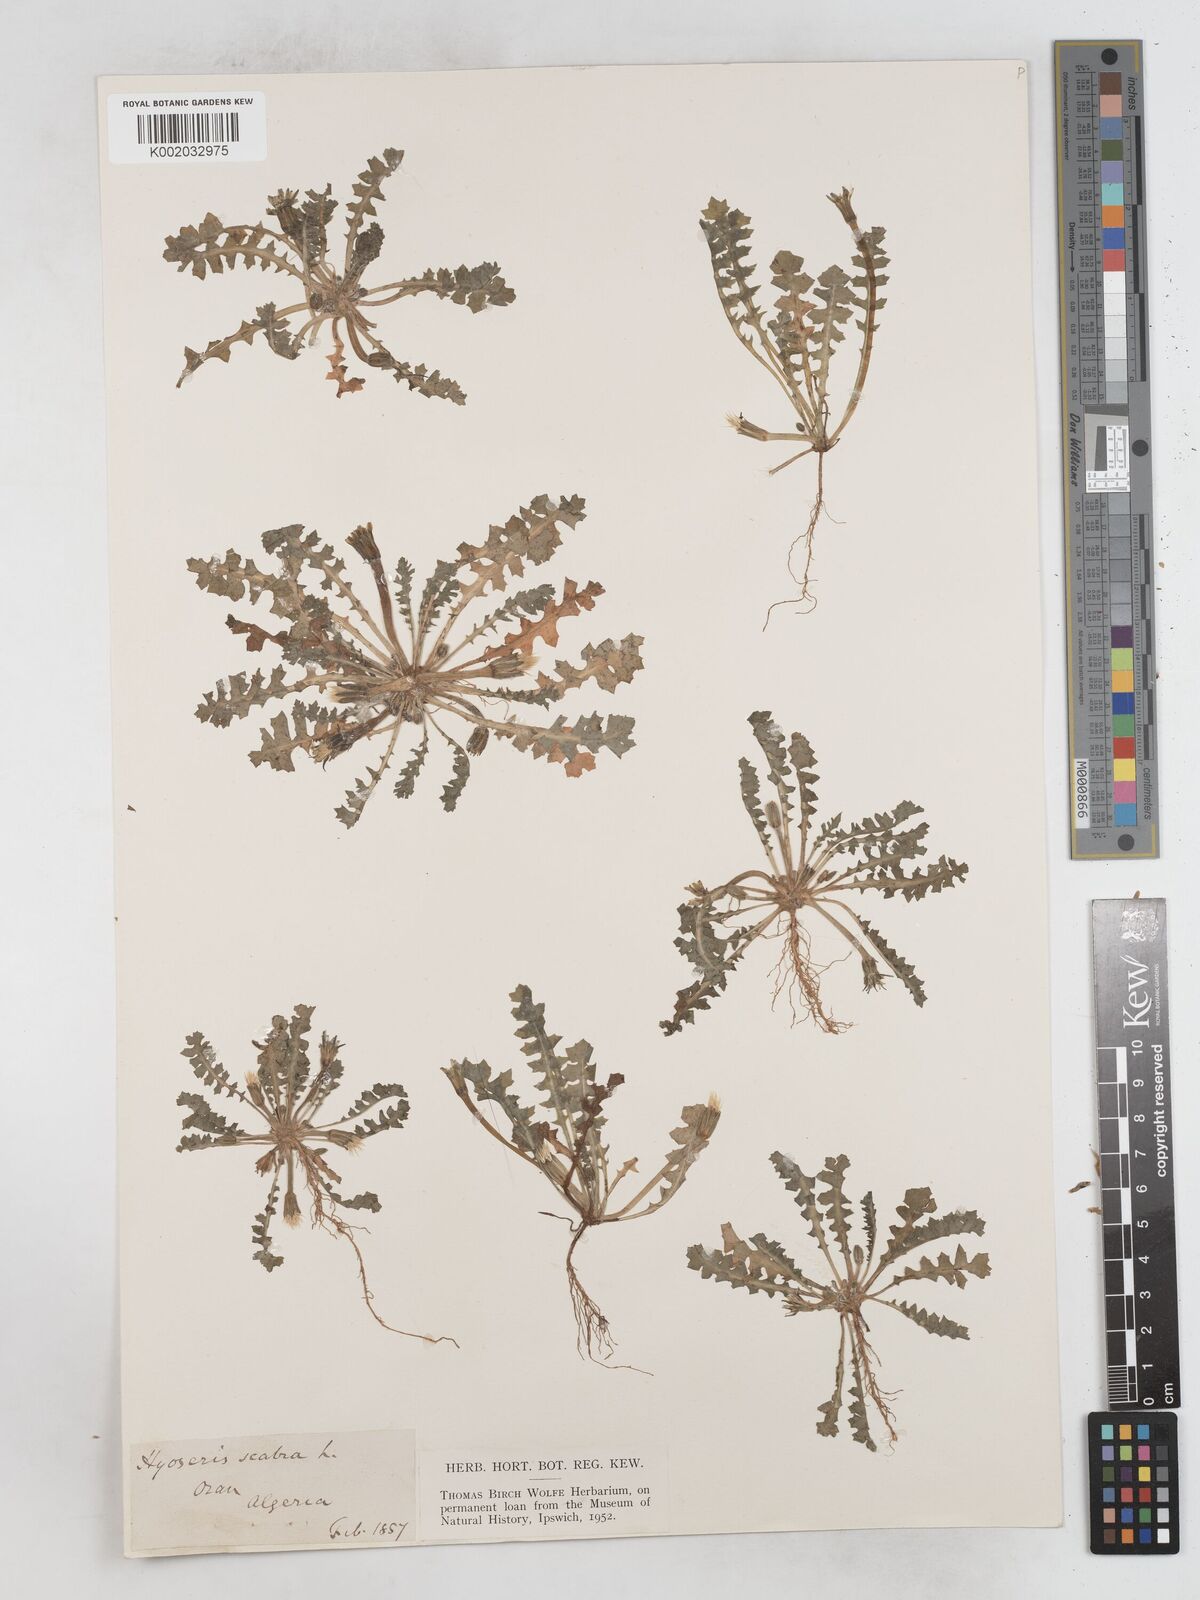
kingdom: Plantae
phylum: Tracheophyta
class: Magnoliopsida
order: Asterales
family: Asteraceae
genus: Hyoseris
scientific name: Hyoseris scabra
